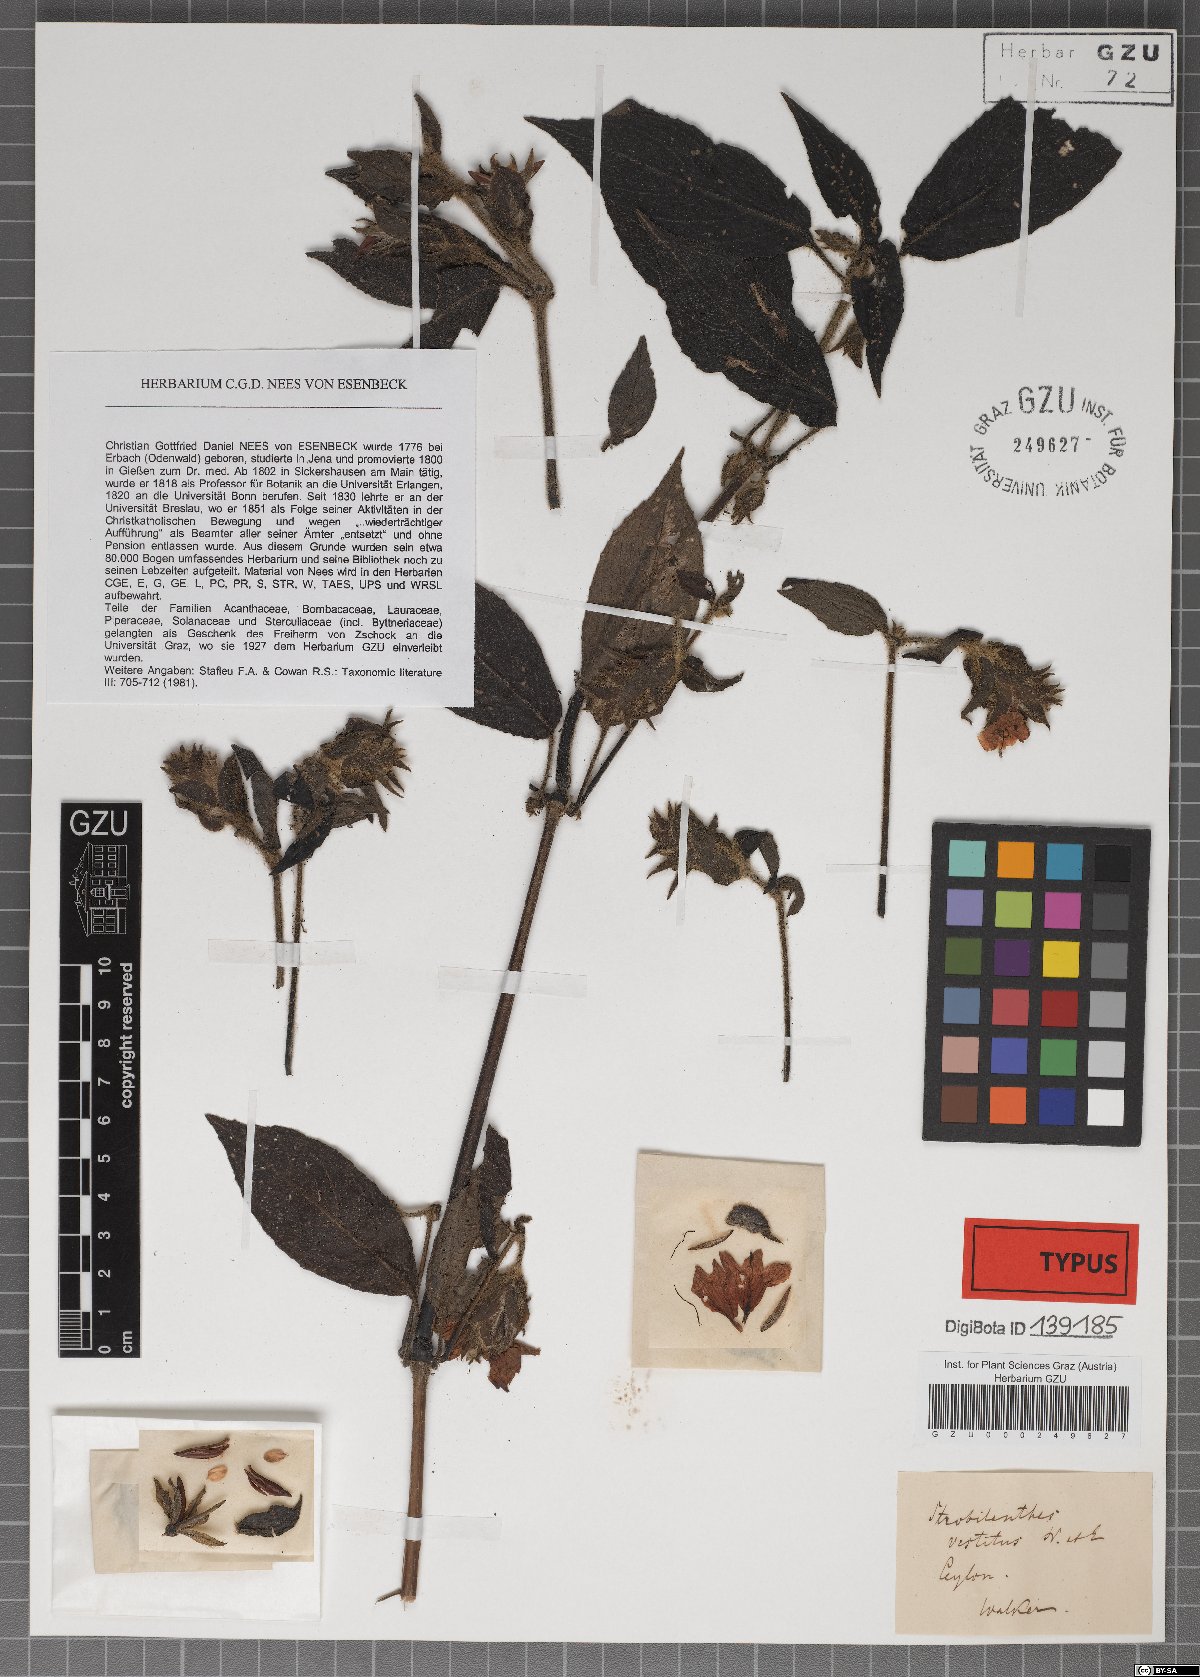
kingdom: Plantae
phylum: Tracheophyta
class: Magnoliopsida
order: Lamiales
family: Acanthaceae
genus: Strobilanthes
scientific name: Strobilanthes vestita
